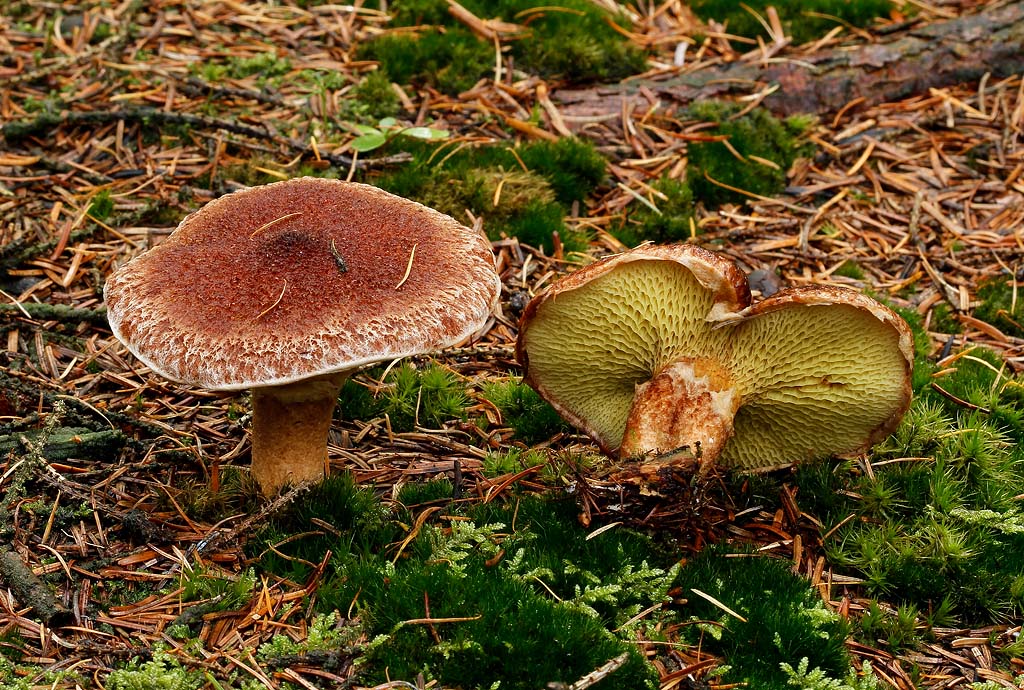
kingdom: Fungi
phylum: Basidiomycota
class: Agaricomycetes
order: Boletales
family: Suillaceae
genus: Suillus
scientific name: Suillus cavipes
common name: hulstokket slimrørhat
